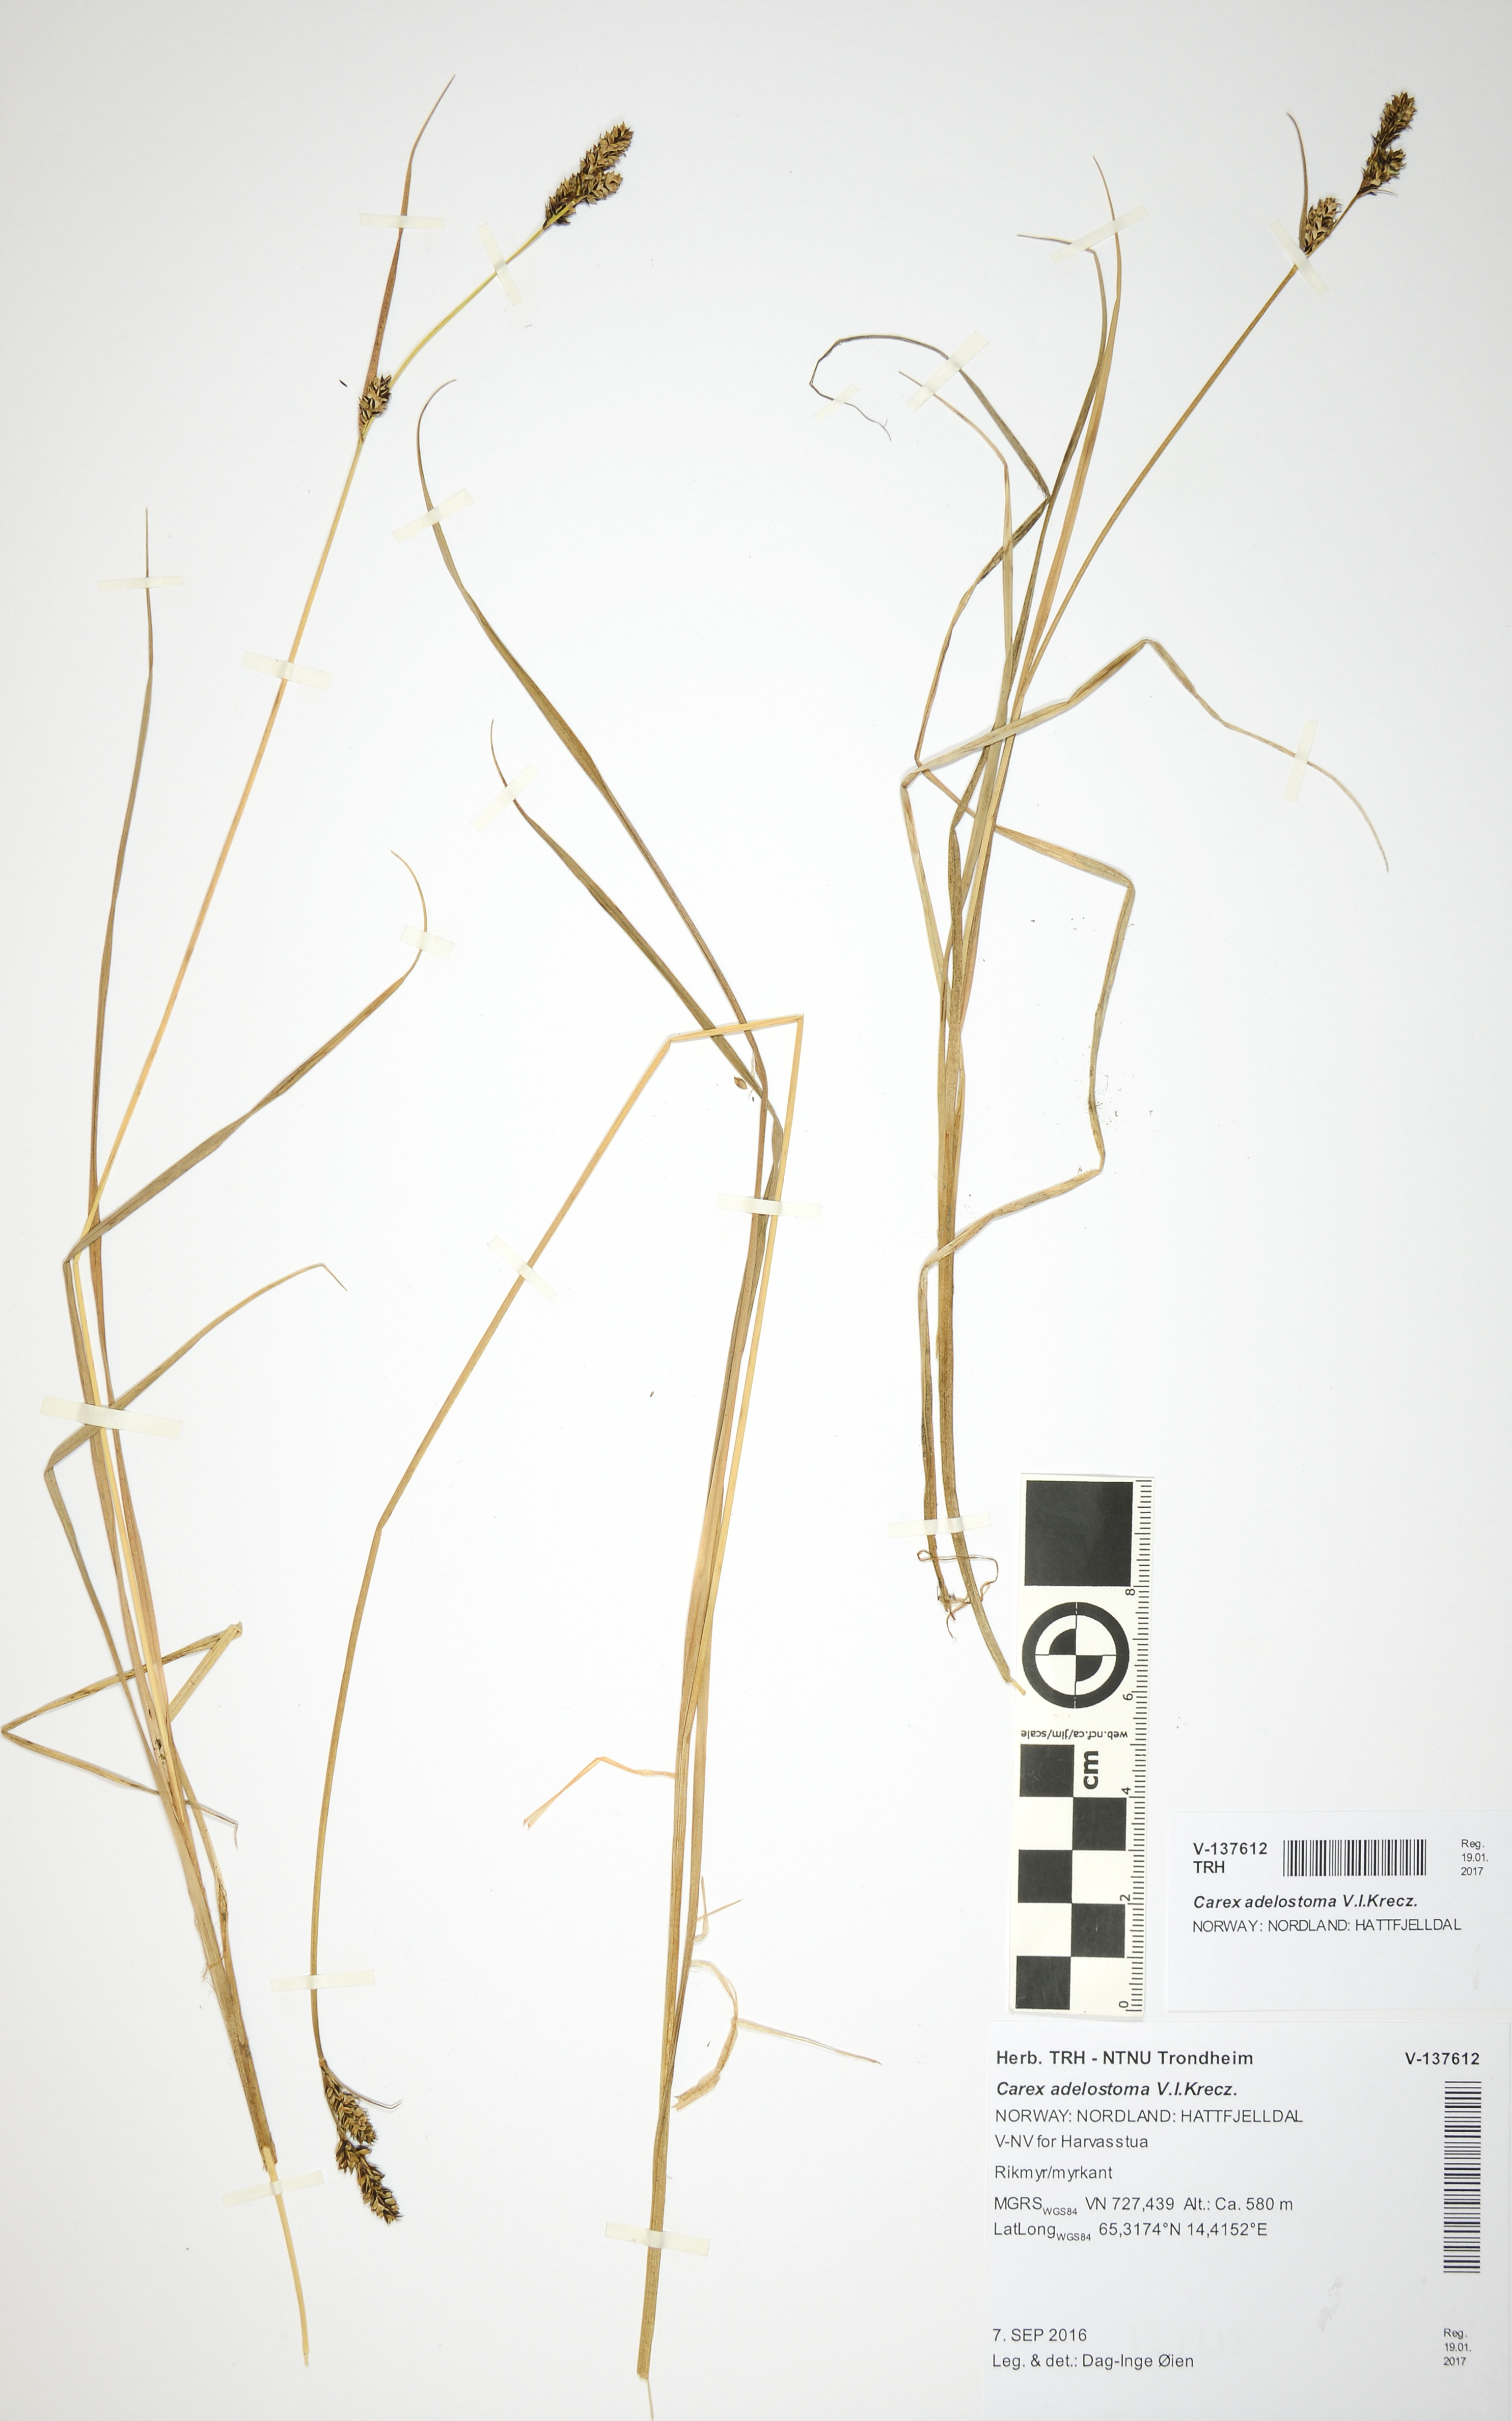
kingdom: Plantae
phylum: Tracheophyta
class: Liliopsida
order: Poales
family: Cyperaceae
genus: Carex
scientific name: Carex adelostoma
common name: Circumpolar sedge
